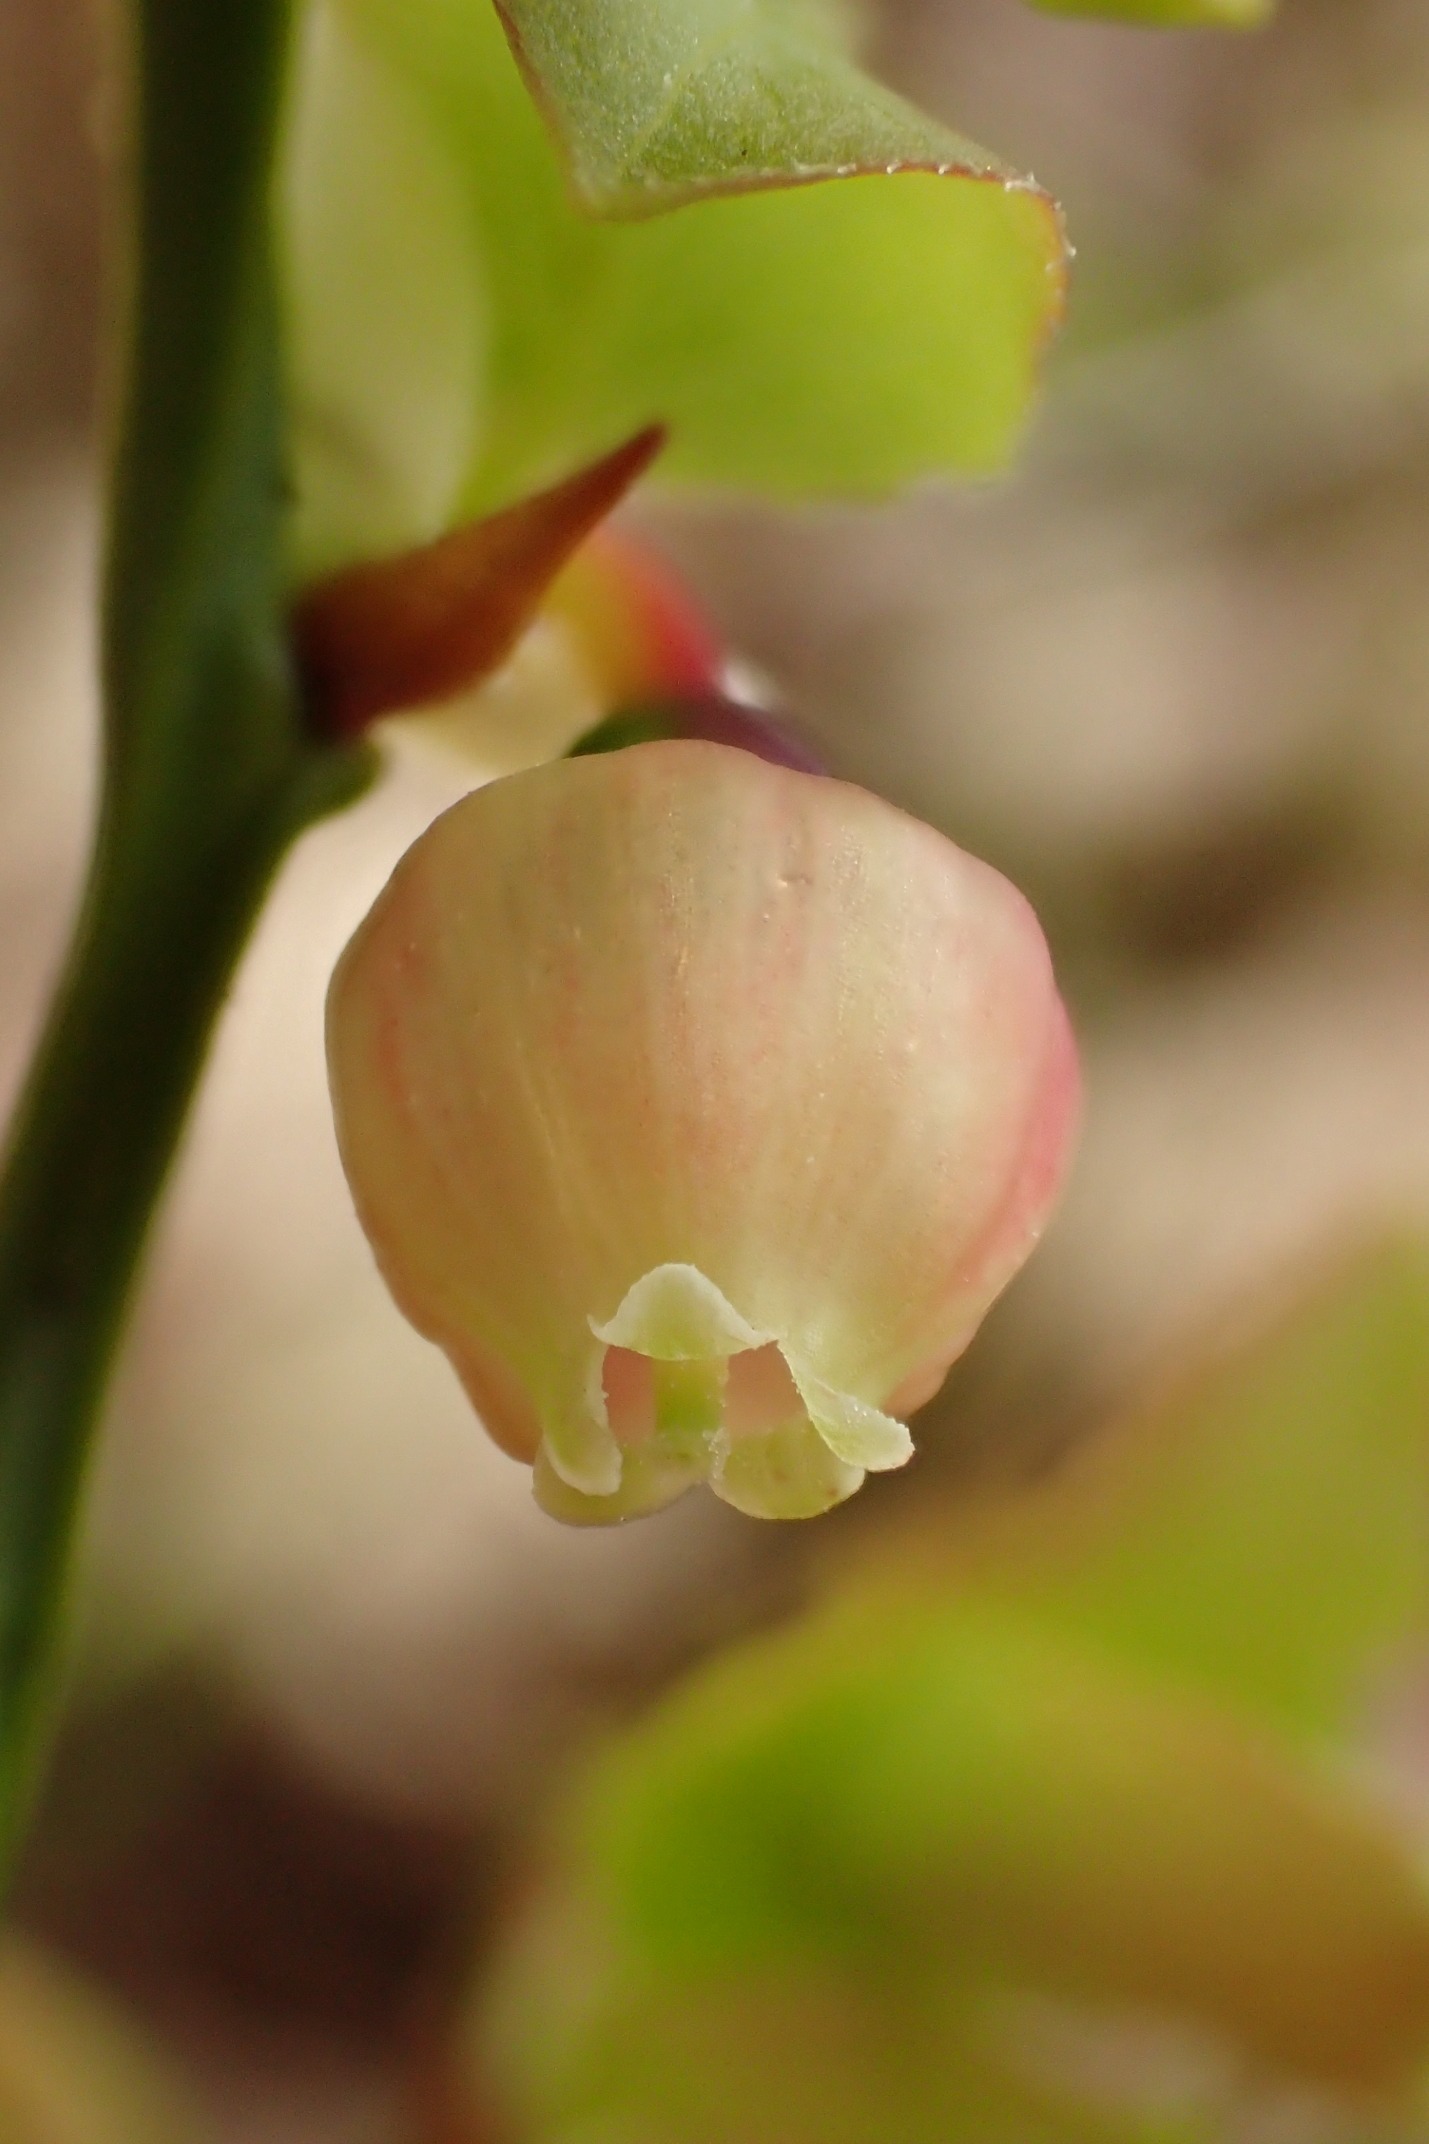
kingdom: Plantae
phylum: Tracheophyta
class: Magnoliopsida
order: Ericales
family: Ericaceae
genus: Vaccinium
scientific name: Vaccinium myrtillus
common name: Blåbær
